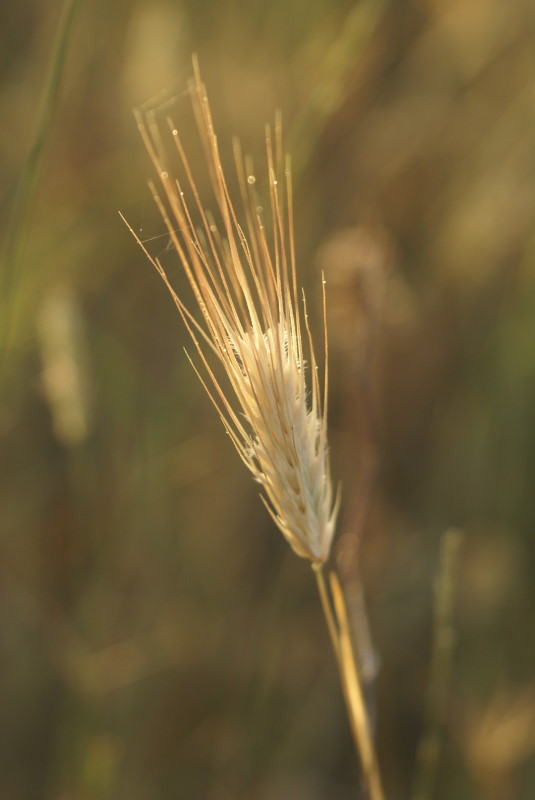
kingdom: Plantae
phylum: Tracheophyta
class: Liliopsida
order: Poales
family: Poaceae
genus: Hordeum
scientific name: Hordeum marinum
